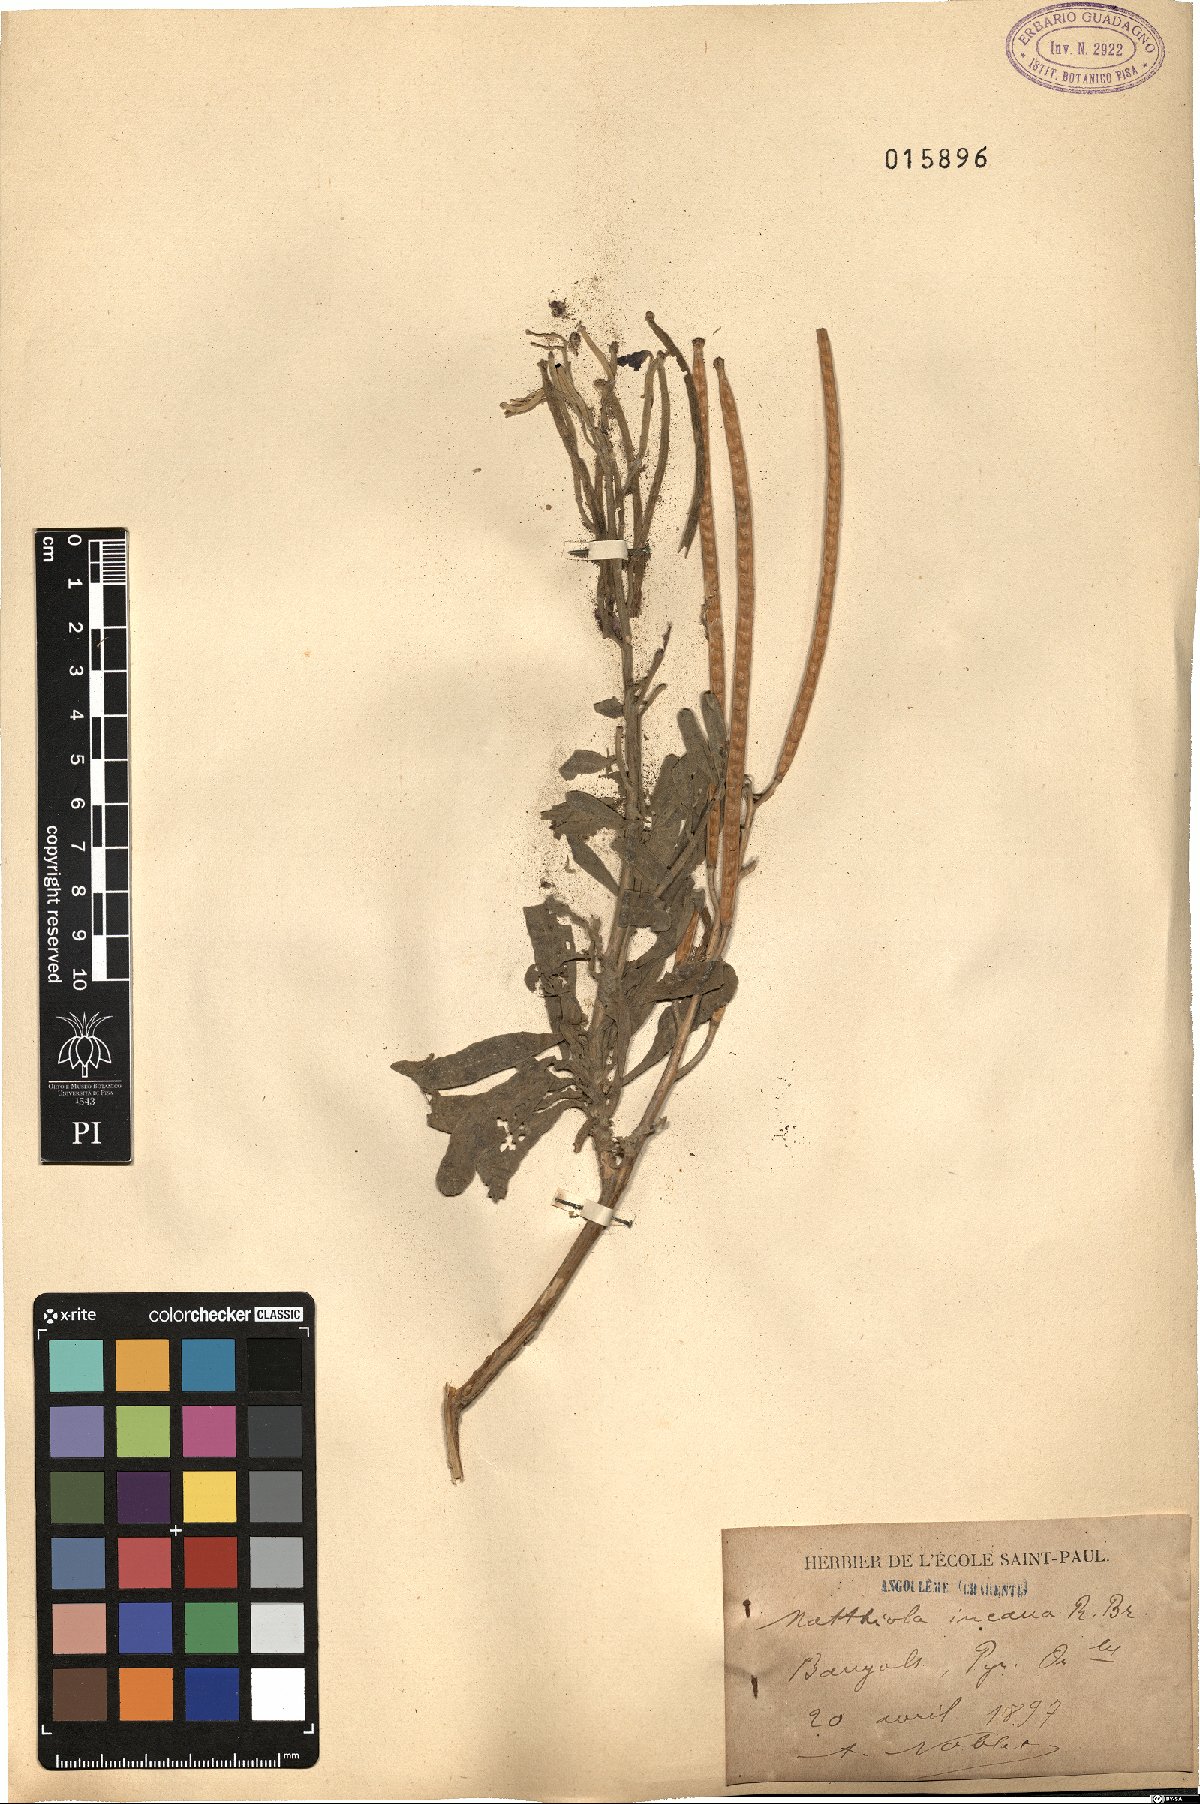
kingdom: Plantae
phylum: Tracheophyta
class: Magnoliopsida
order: Brassicales
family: Brassicaceae
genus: Matthiola
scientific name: Matthiola incana
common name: Hoary stock
